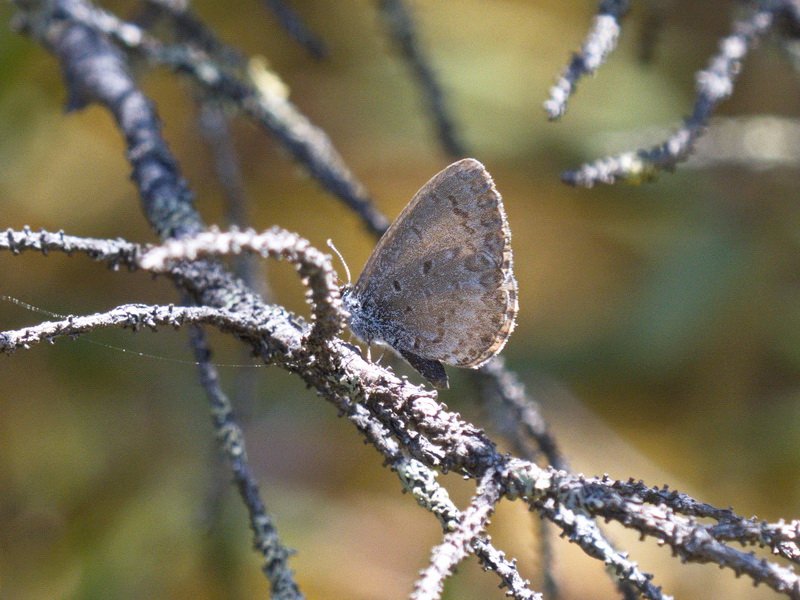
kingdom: Animalia
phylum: Arthropoda
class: Insecta
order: Lepidoptera
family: Lycaenidae
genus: Celastrina
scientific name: Celastrina lucia
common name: Northern Spring Azure
